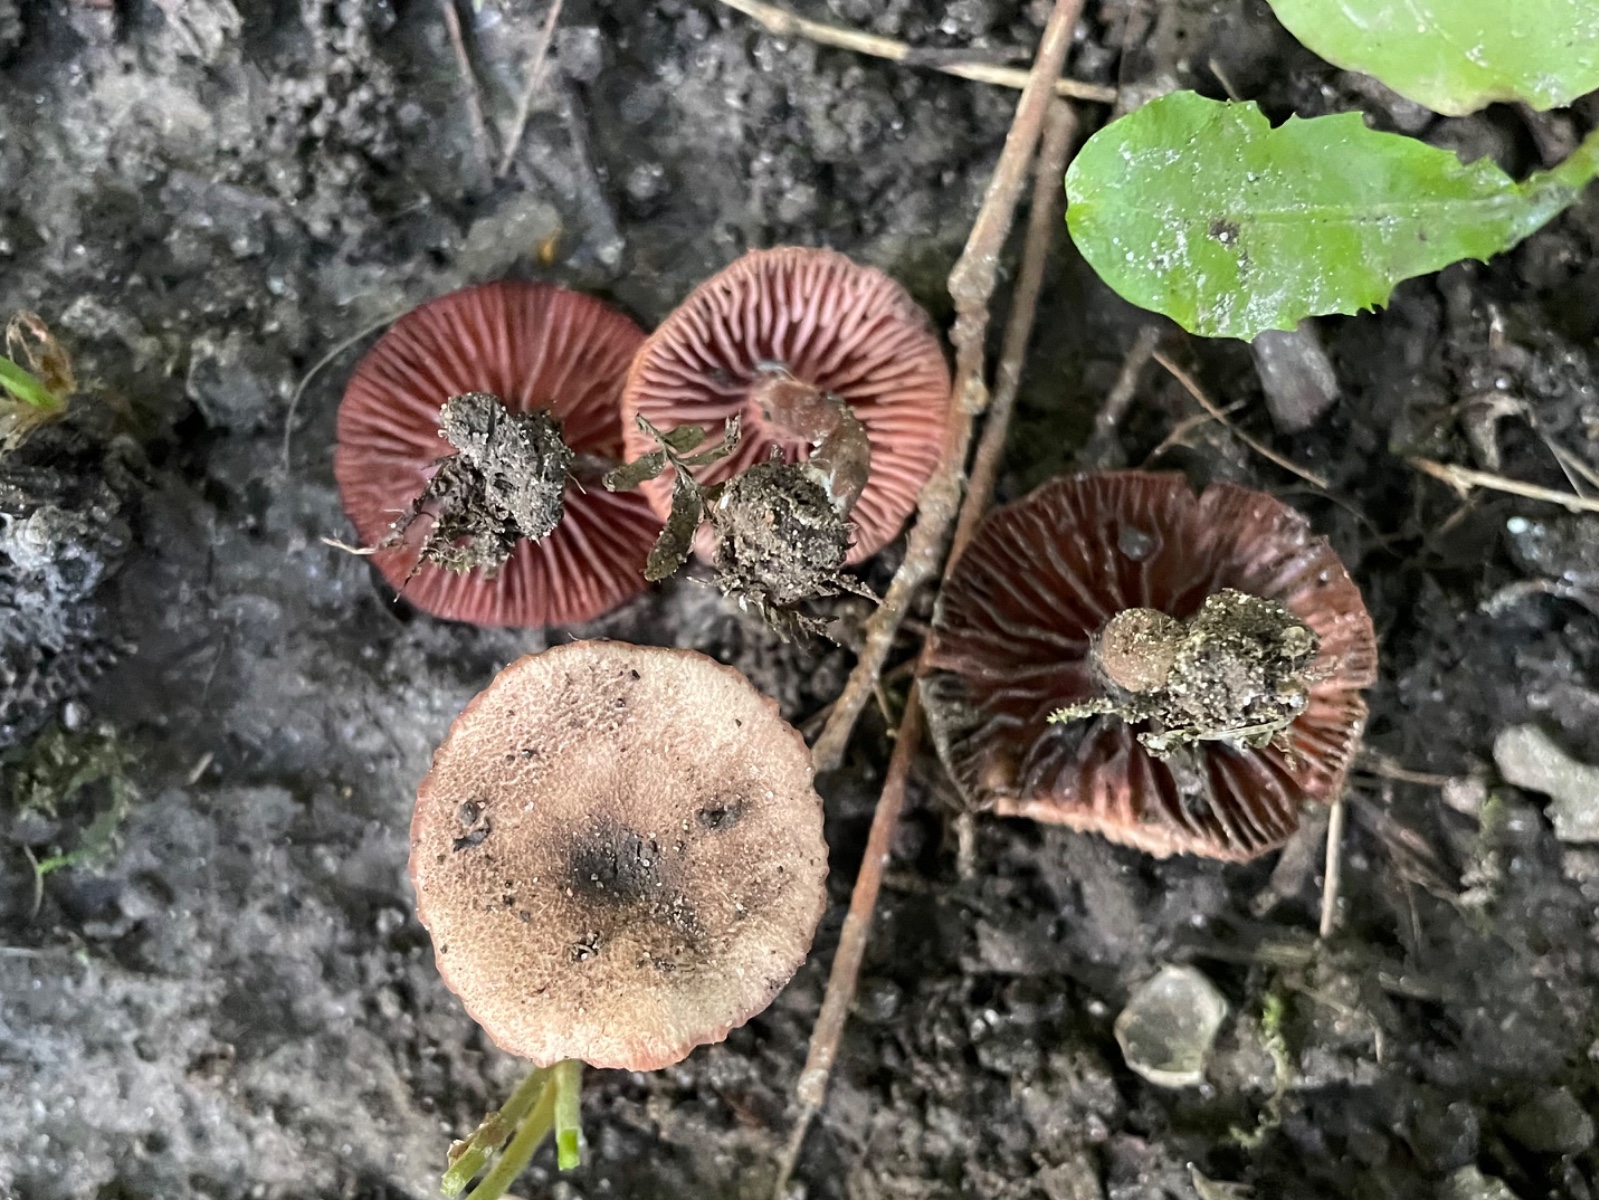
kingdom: Fungi
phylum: Basidiomycota
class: Agaricomycetes
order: Agaricales
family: Agaricaceae
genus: Melanophyllum
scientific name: Melanophyllum haematospermum
